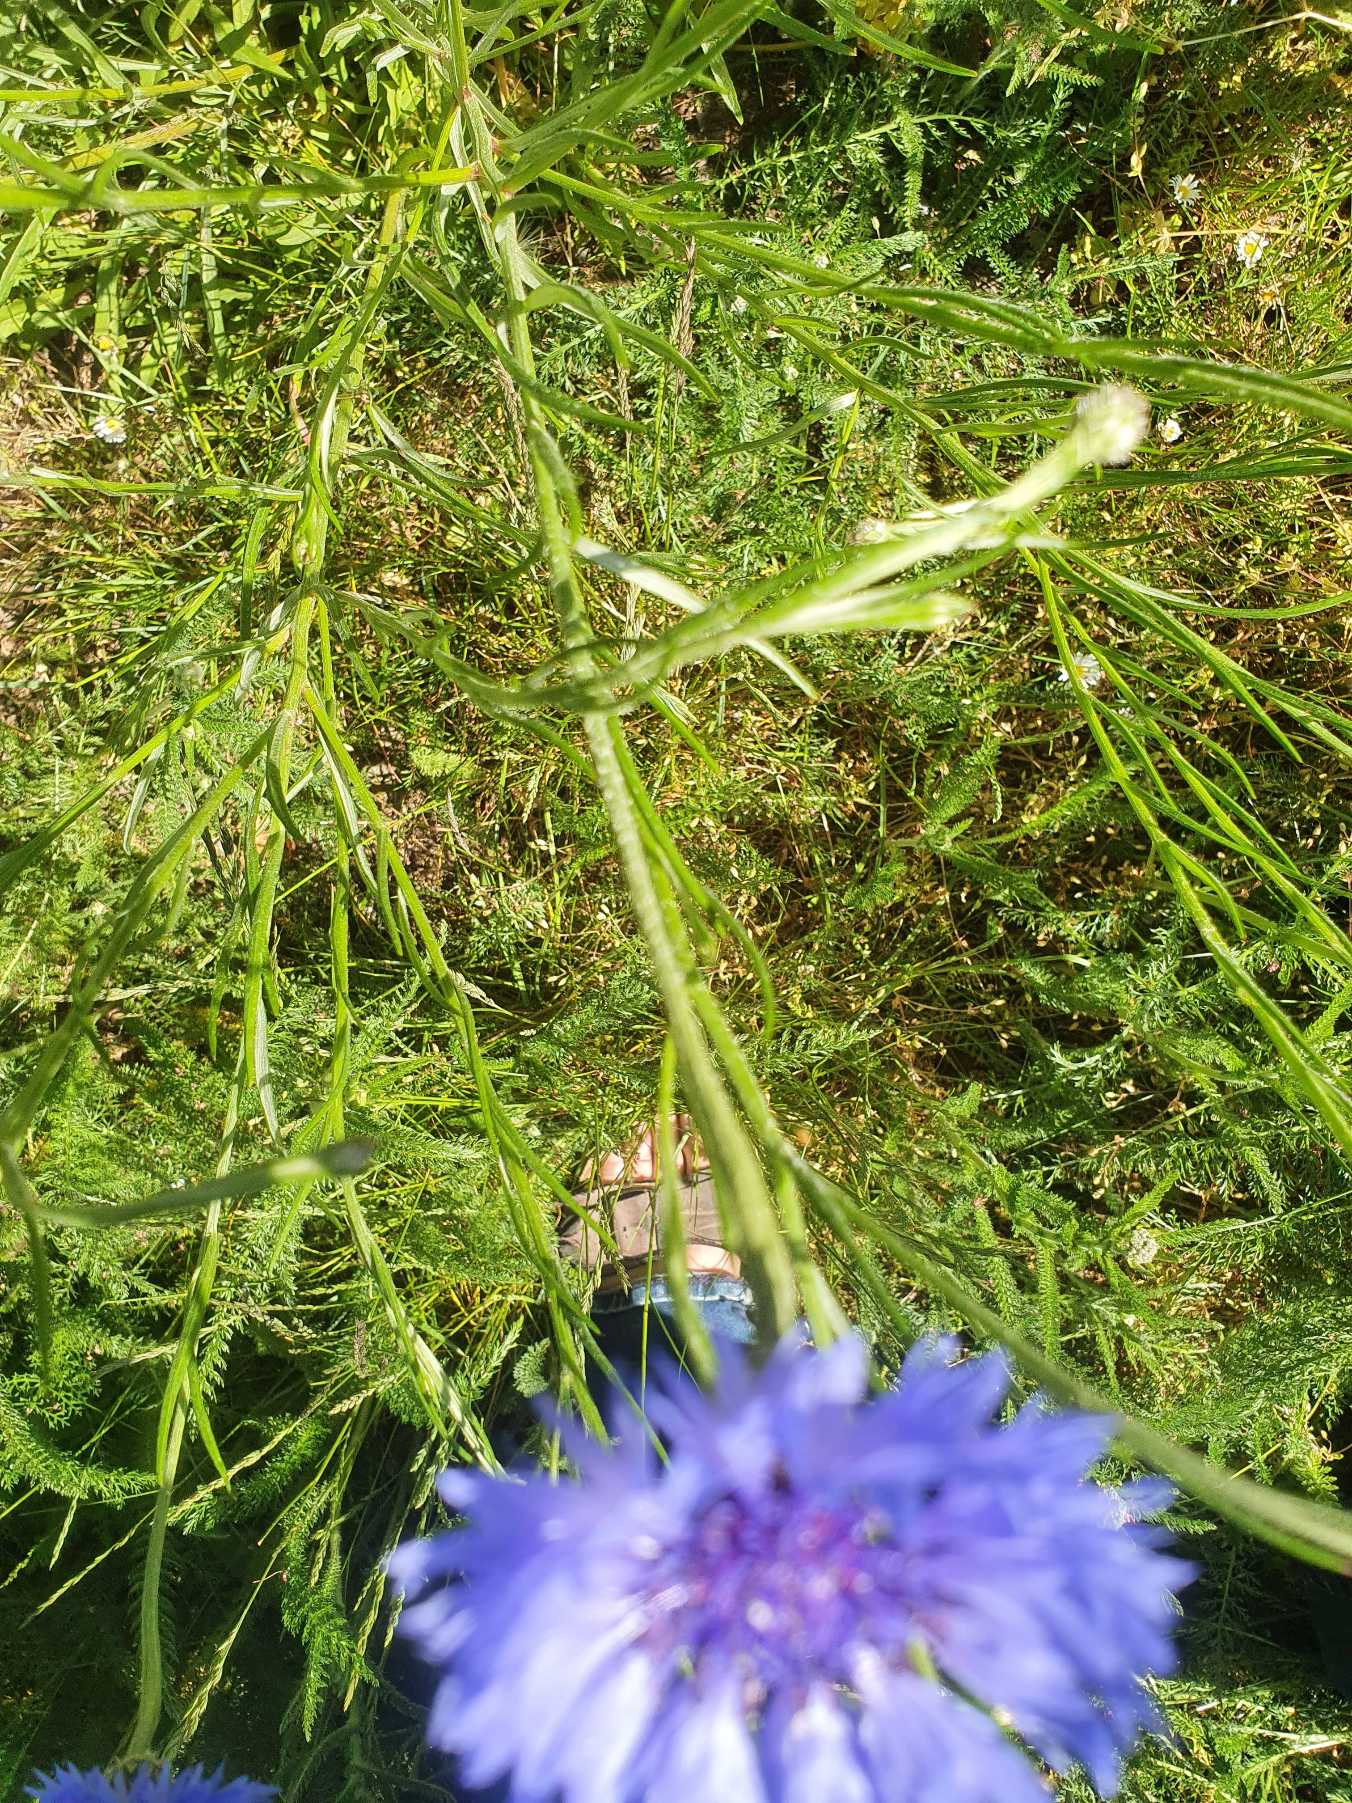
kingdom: Plantae
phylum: Tracheophyta
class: Magnoliopsida
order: Asterales
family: Asteraceae
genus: Centaurea
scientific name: Centaurea cyanus
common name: Kornblomst
